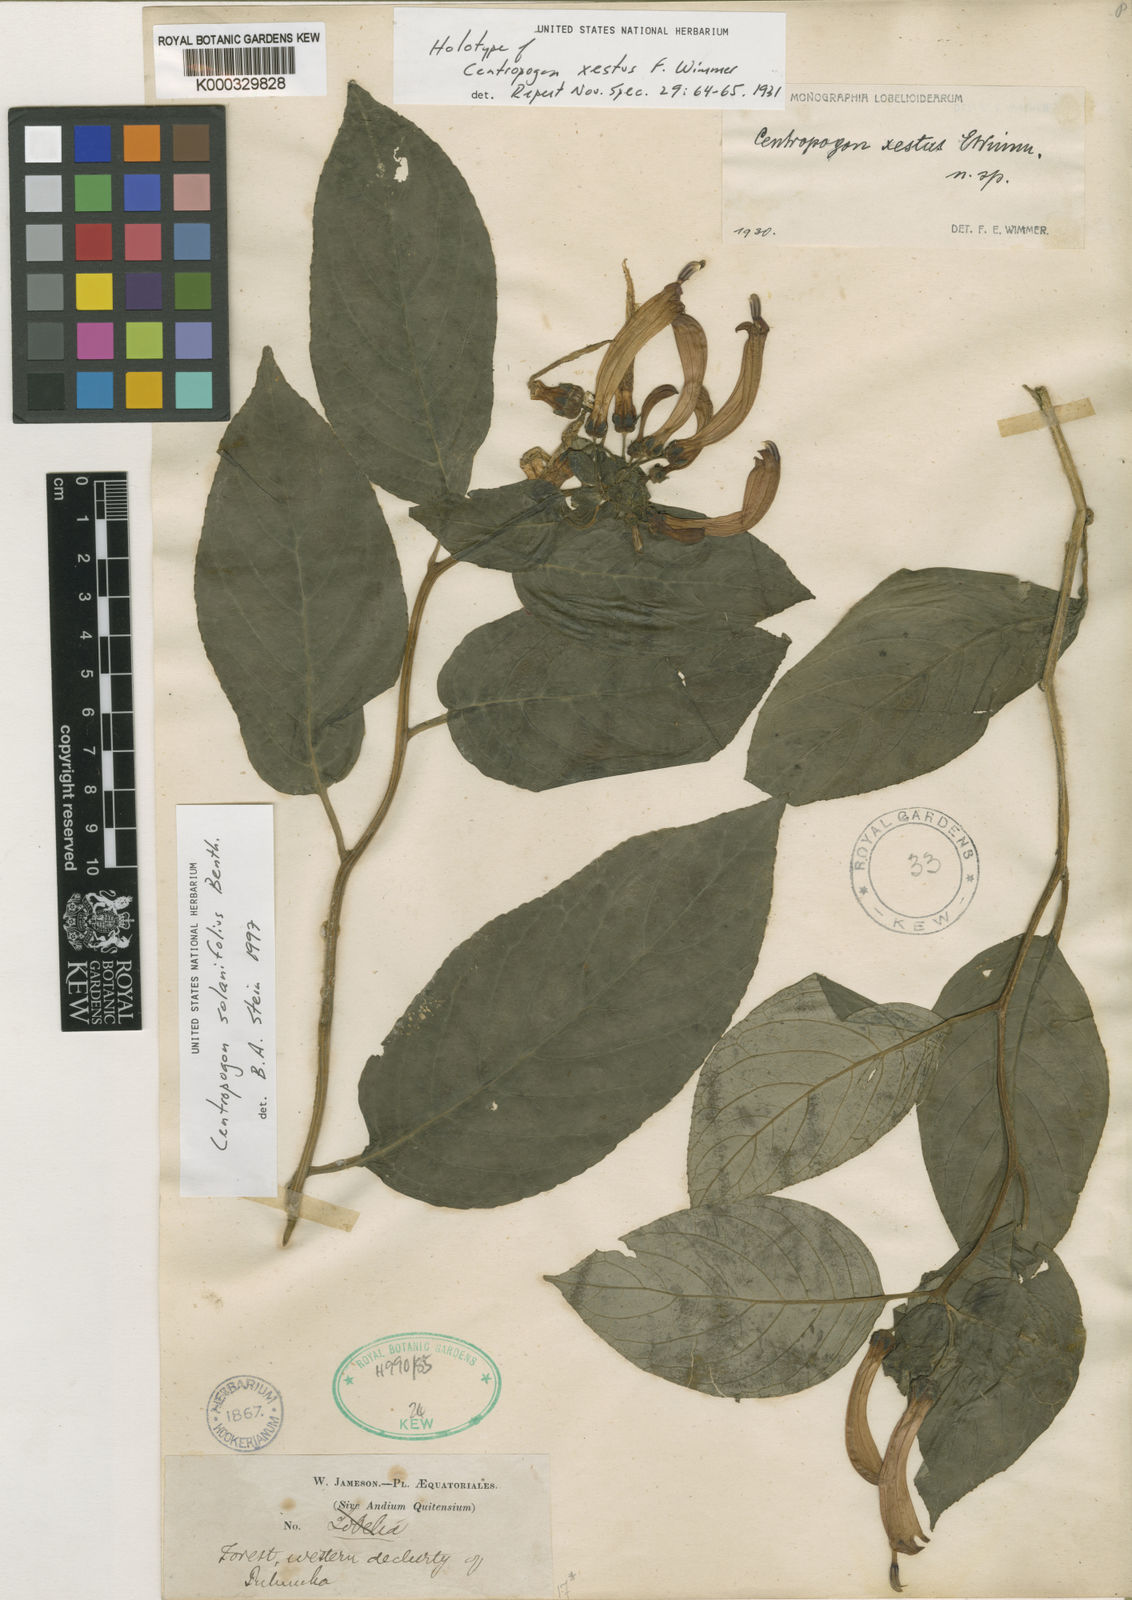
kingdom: Plantae
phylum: Tracheophyta
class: Magnoliopsida
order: Asterales
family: Campanulaceae
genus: Centropogon
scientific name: Centropogon solanifolius
